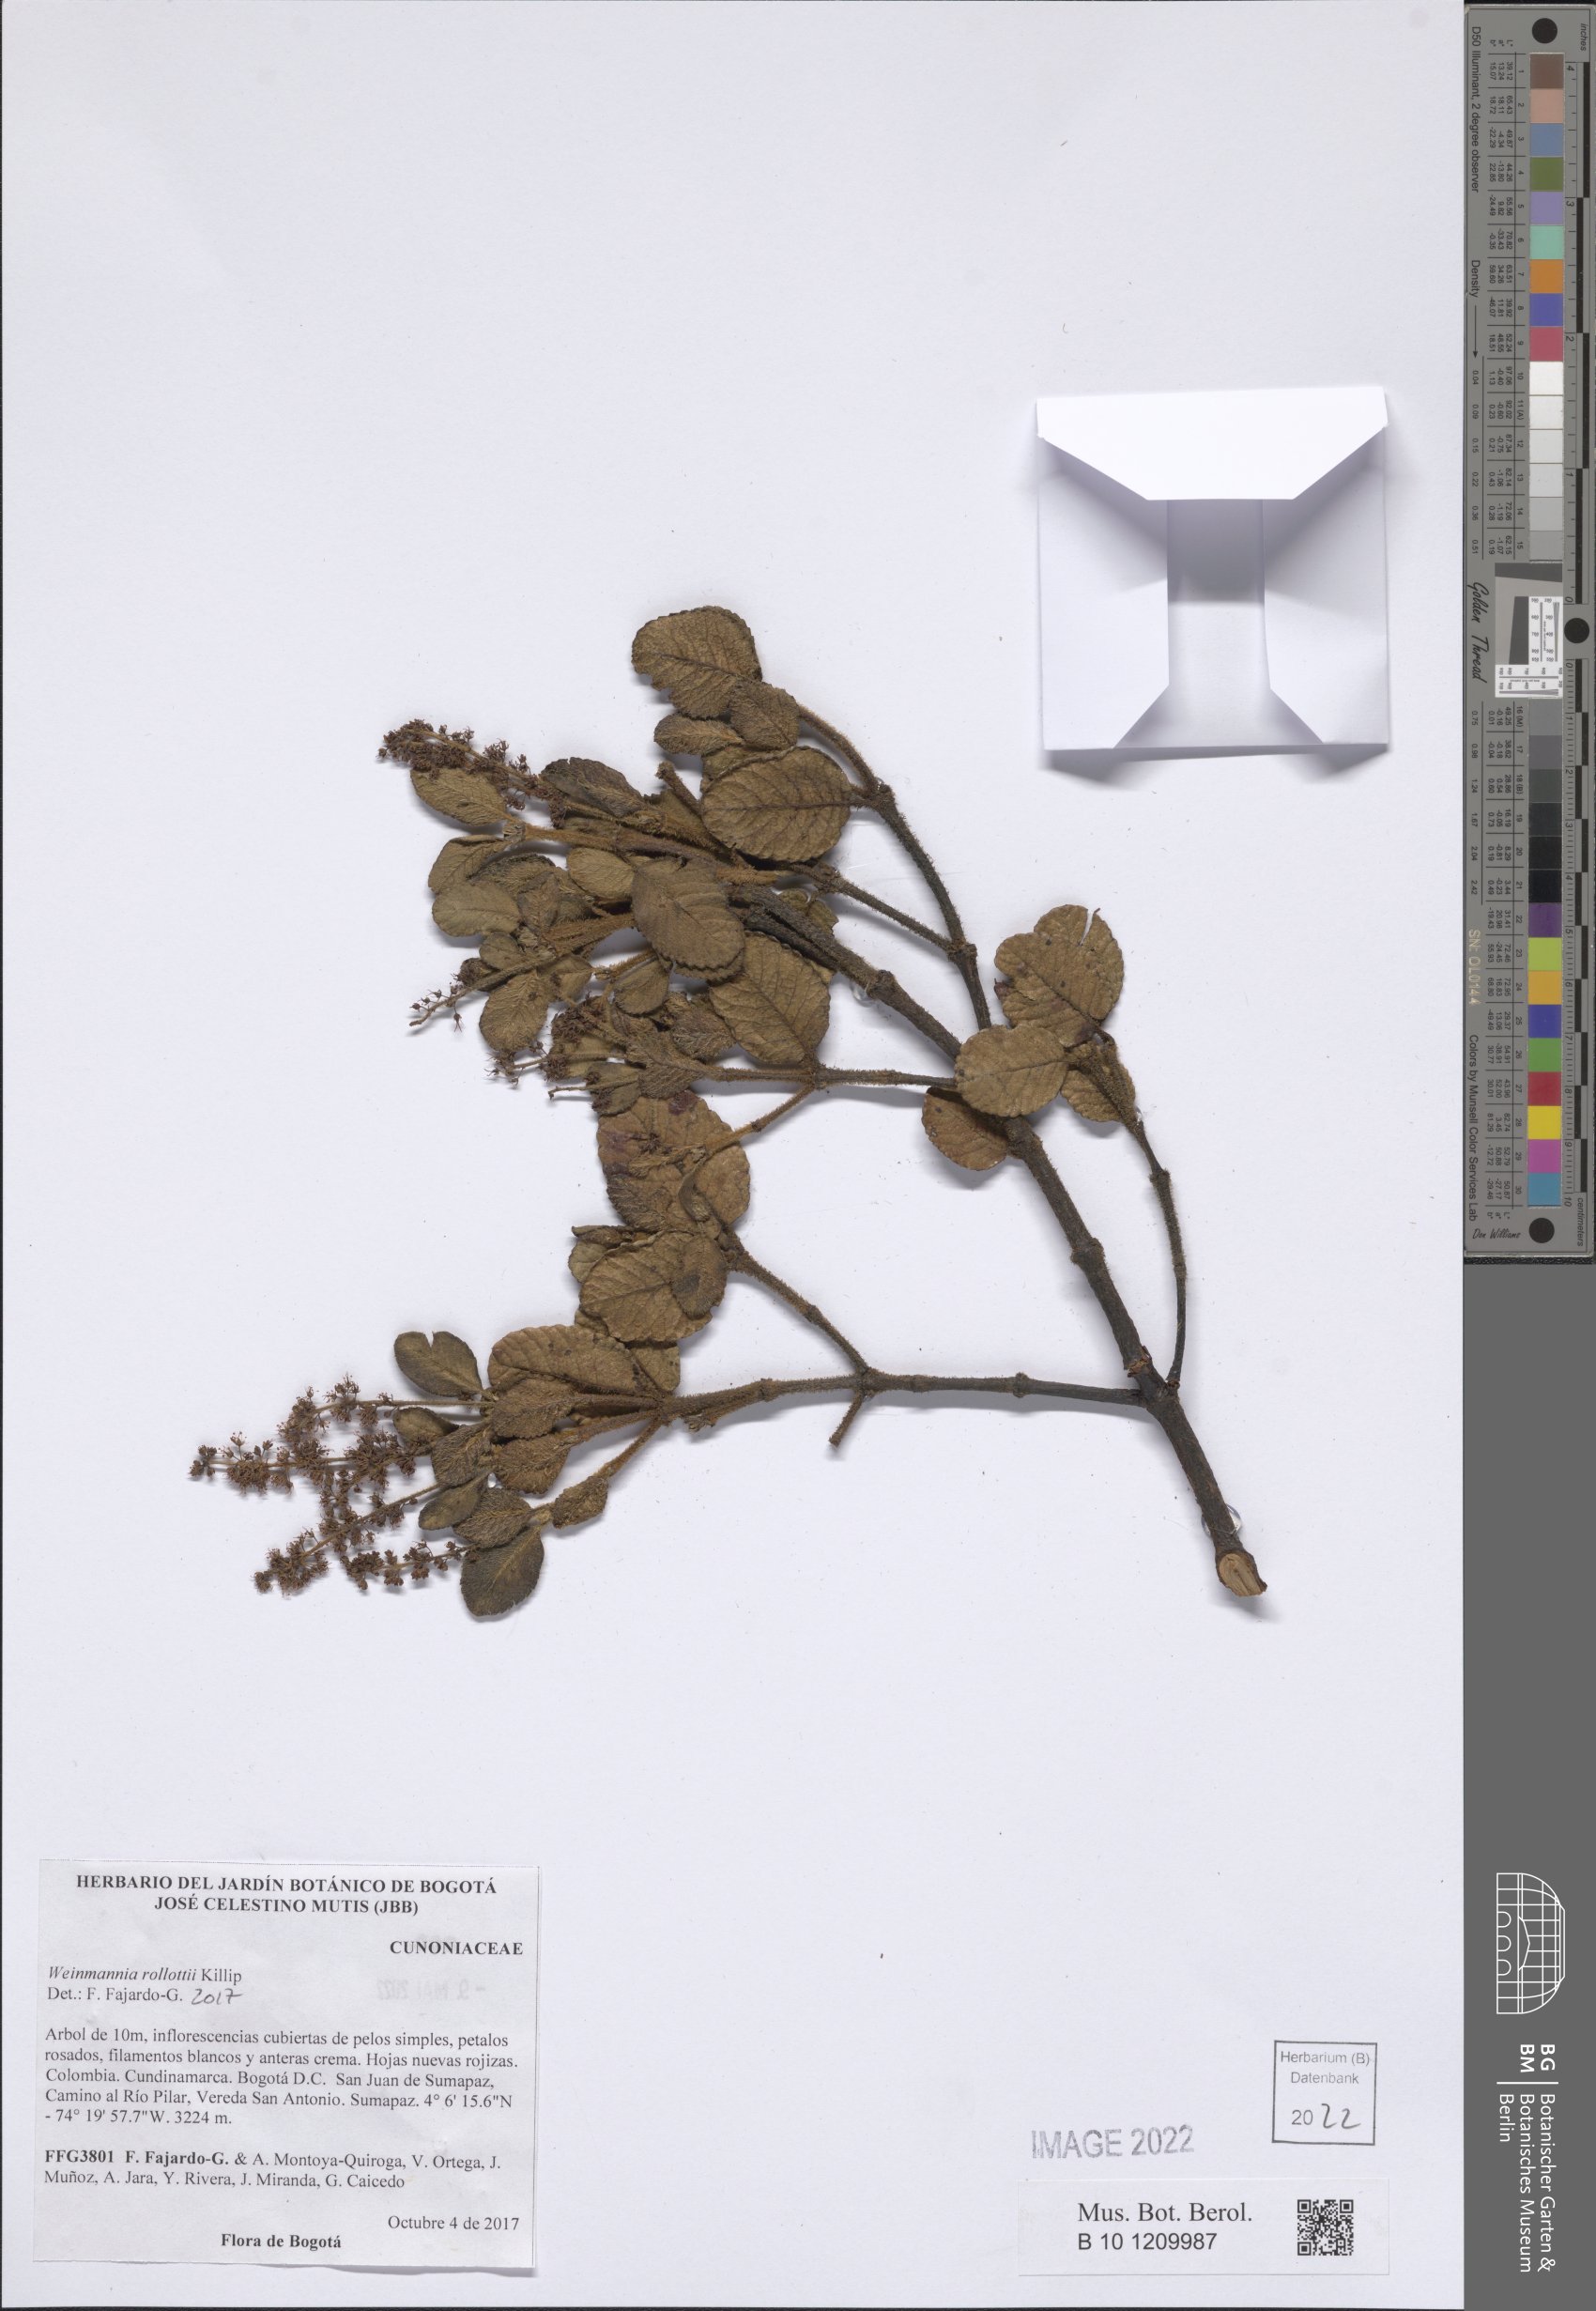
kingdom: Plantae
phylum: Tracheophyta
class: Magnoliopsida
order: Oxalidales
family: Cunoniaceae
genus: Weinmannia
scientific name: Weinmannia rollottii
